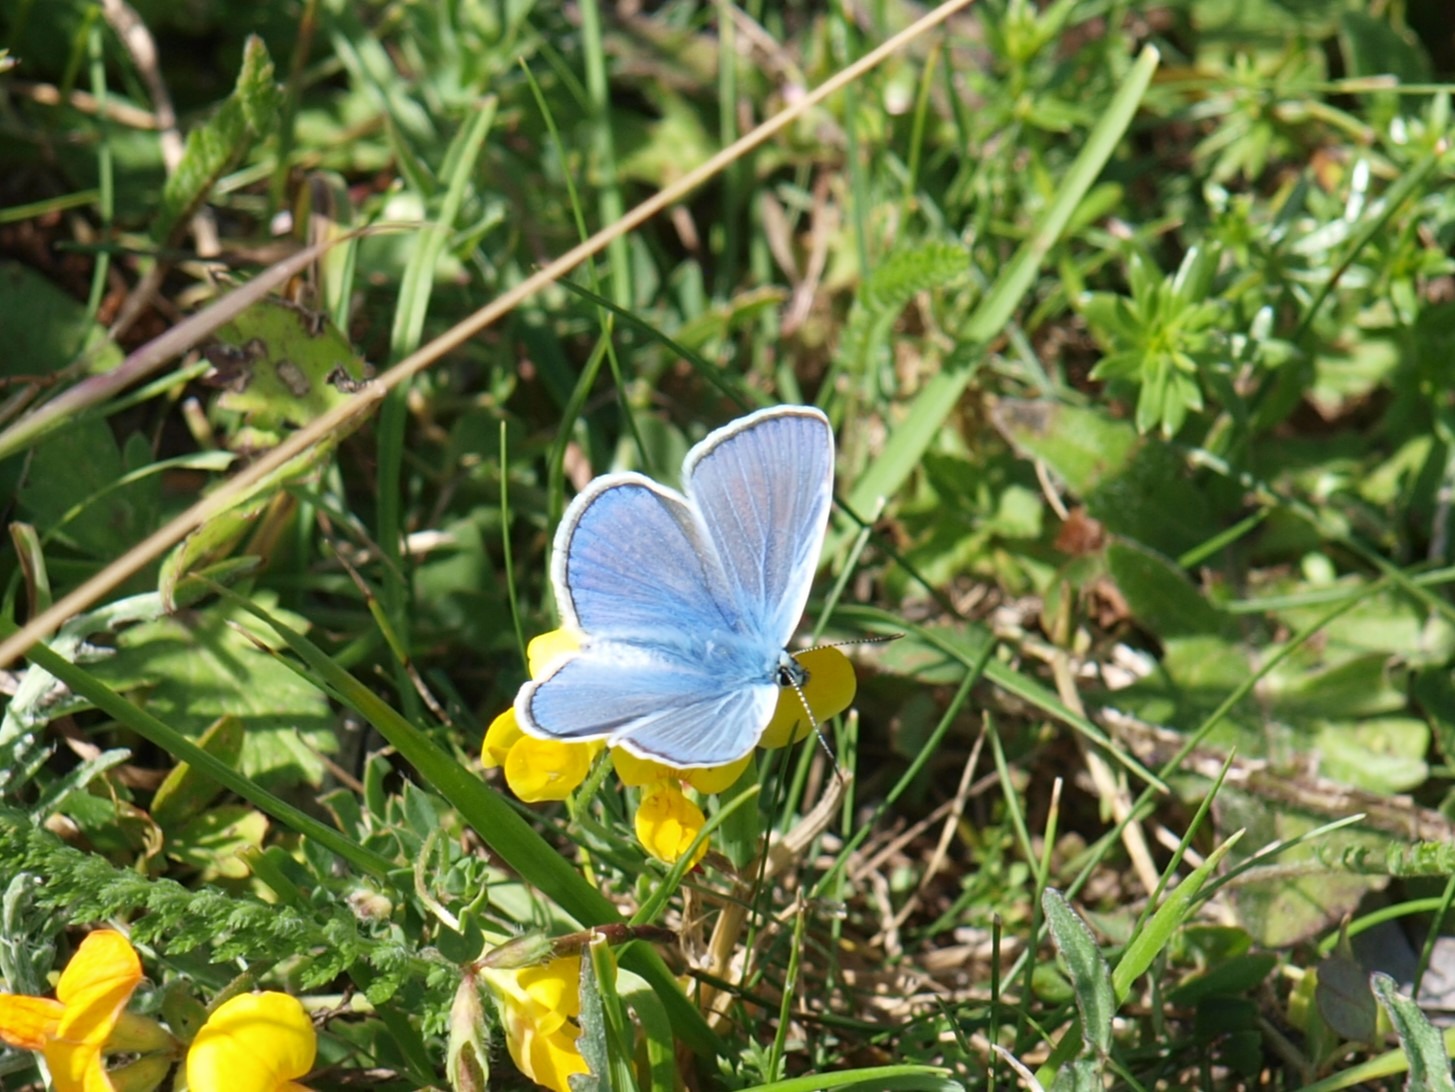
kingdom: Animalia
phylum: Arthropoda
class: Insecta
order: Lepidoptera
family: Lycaenidae
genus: Polyommatus
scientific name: Polyommatus icarus
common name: Almindelig blåfugl
